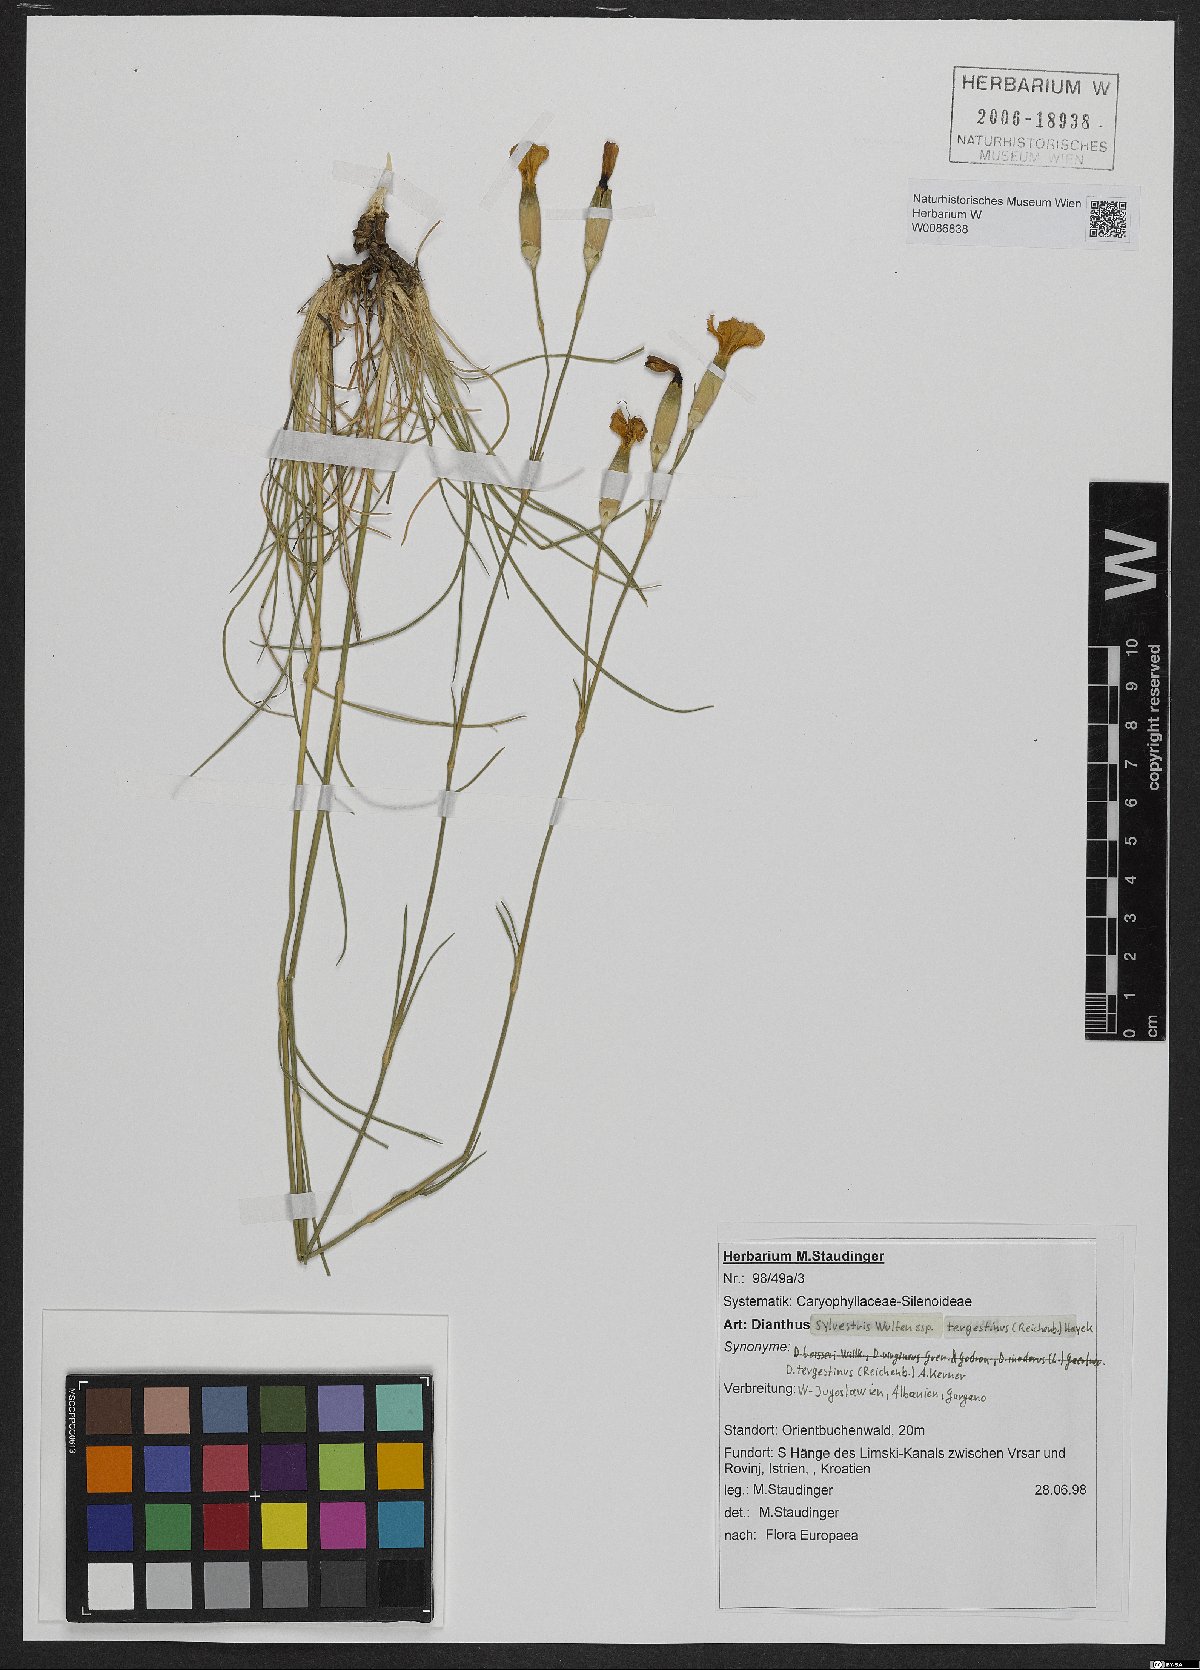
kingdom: Plantae
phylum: Tracheophyta
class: Magnoliopsida
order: Caryophyllales
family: Caryophyllaceae
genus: Dianthus
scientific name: Dianthus sylvestris
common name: Wood pink
